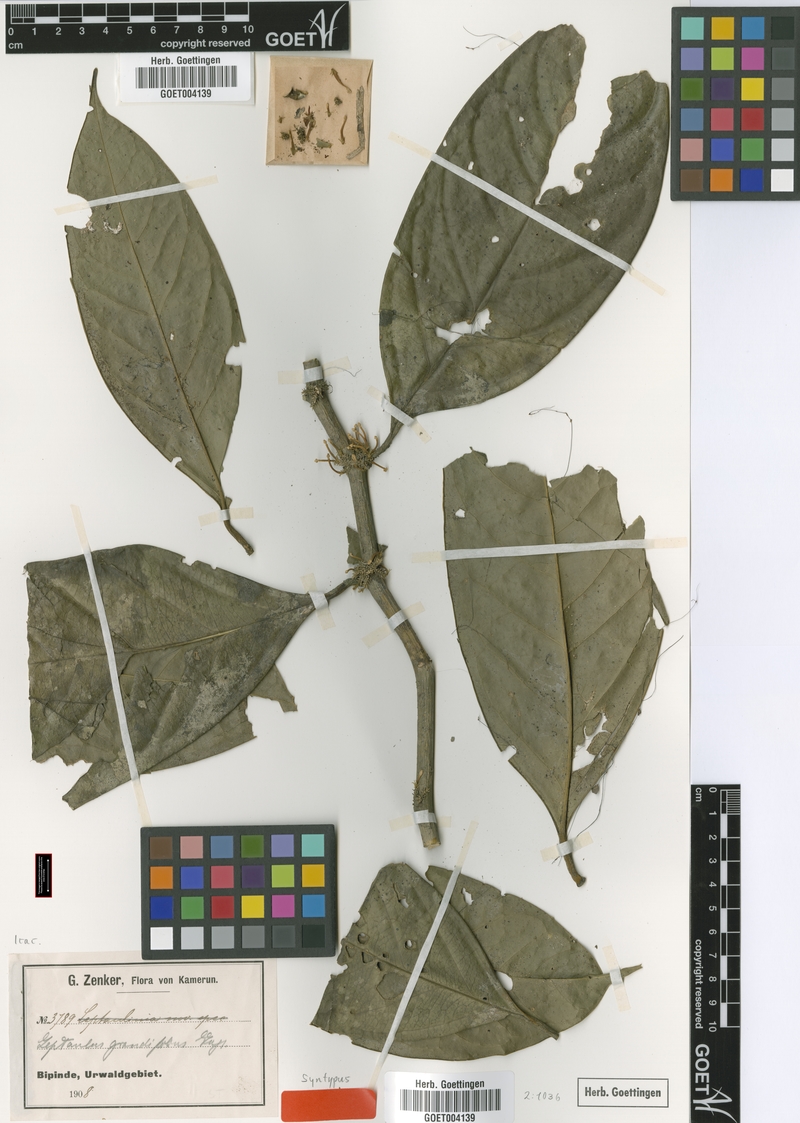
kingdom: Plantae
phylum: Tracheophyta
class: Magnoliopsida
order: Cardiopteridales
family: Cardiopteridaceae
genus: Leptaulus
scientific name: Leptaulus grandifolius
